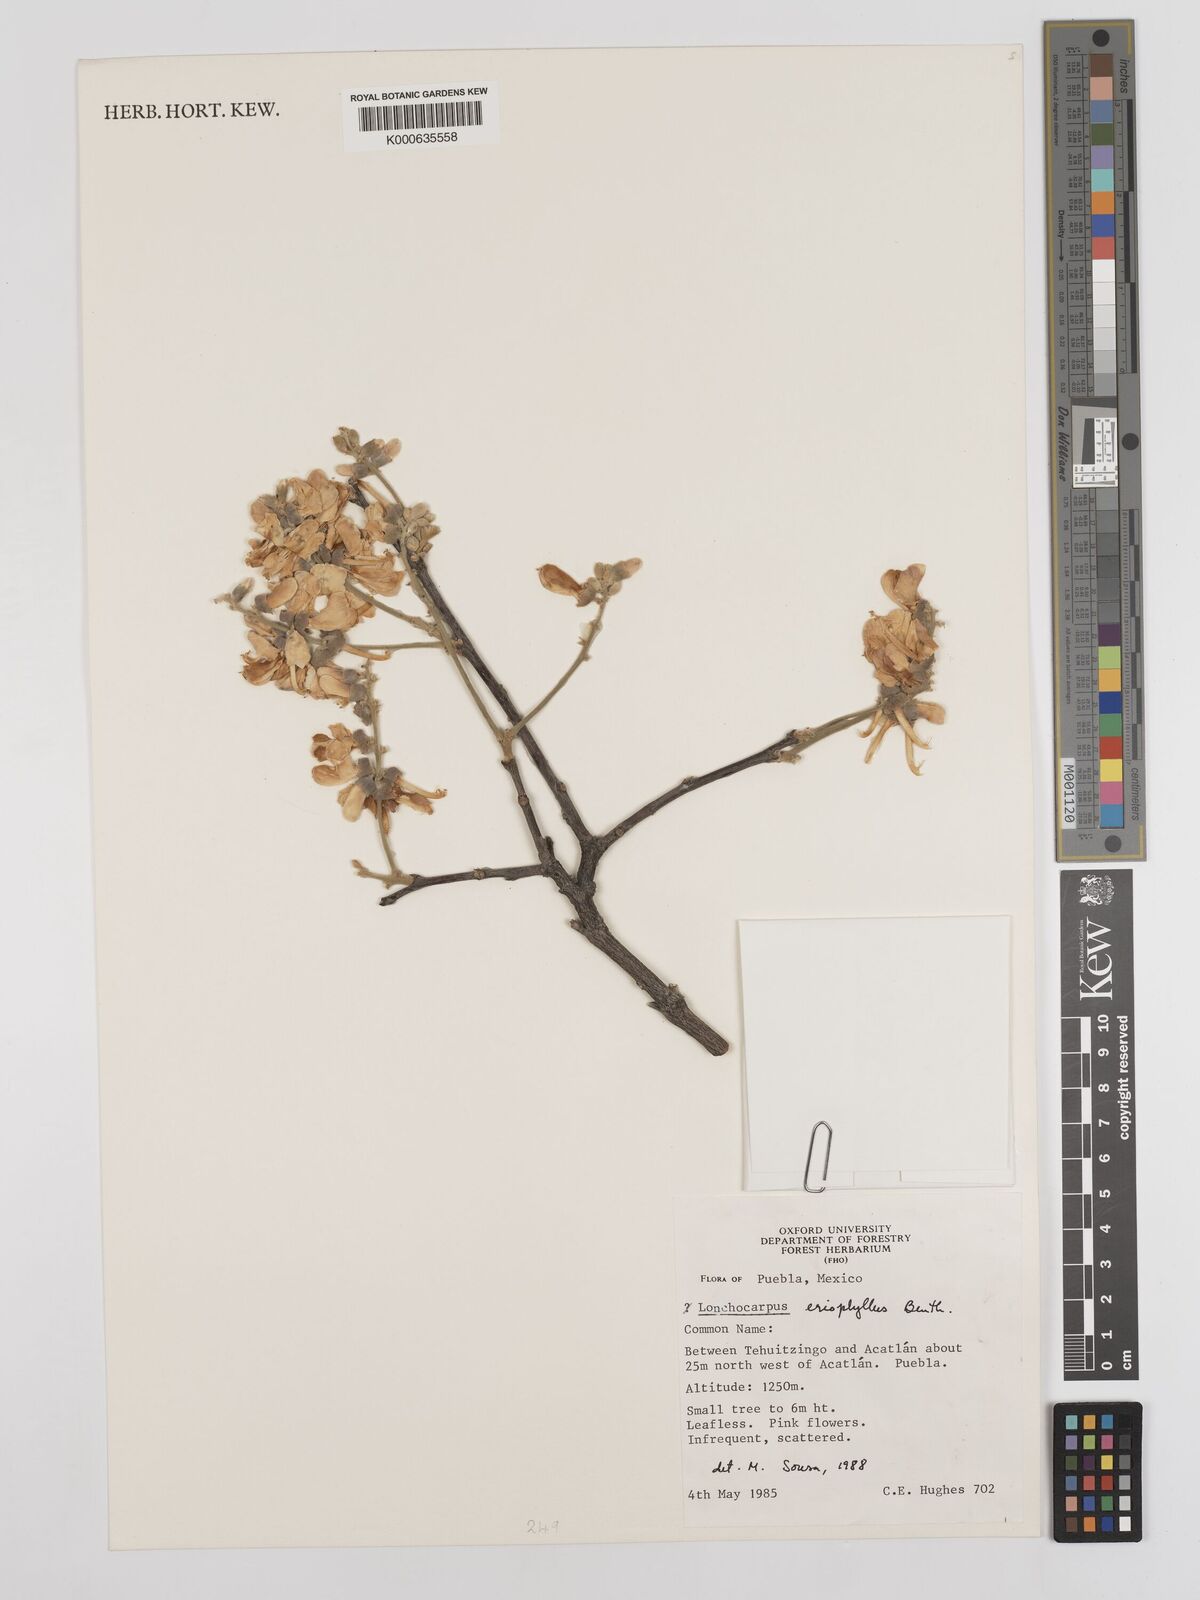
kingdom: Plantae
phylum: Tracheophyta
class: Magnoliopsida
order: Fabales
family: Fabaceae
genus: Lonchocarpus
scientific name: Lonchocarpus eriophyllus
